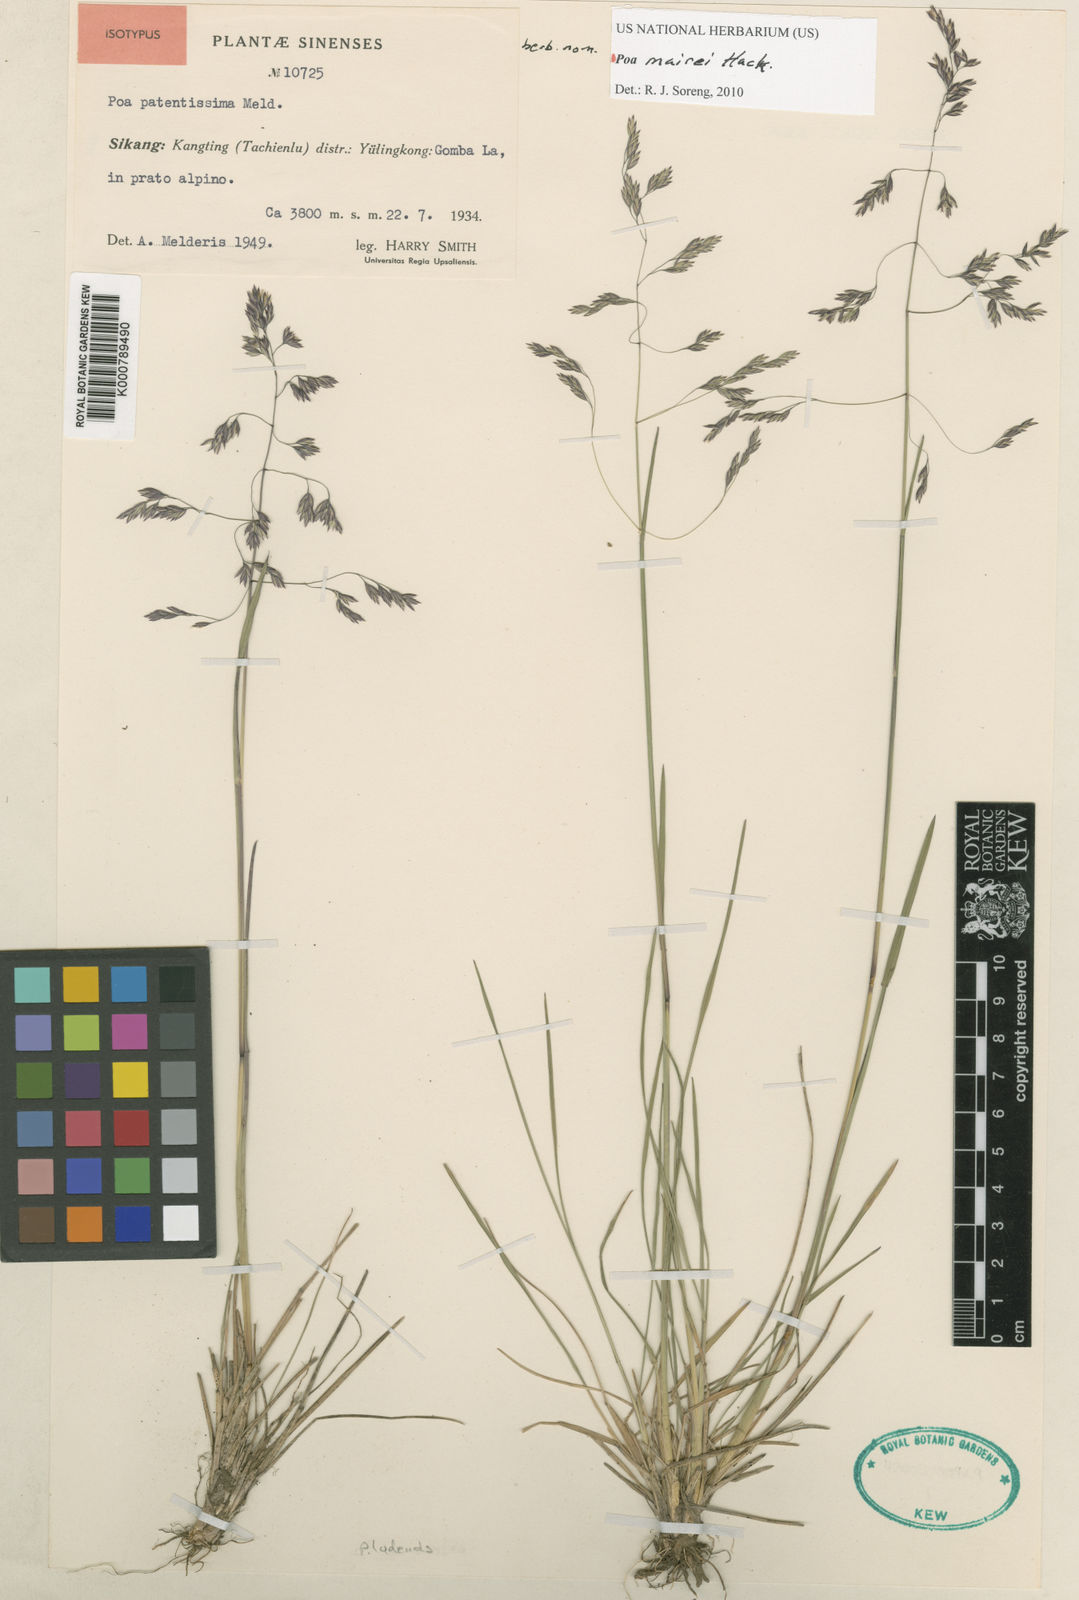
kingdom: Plantae
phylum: Tracheophyta
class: Liliopsida
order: Poales
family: Poaceae
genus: Poa
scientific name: Poa mairei
